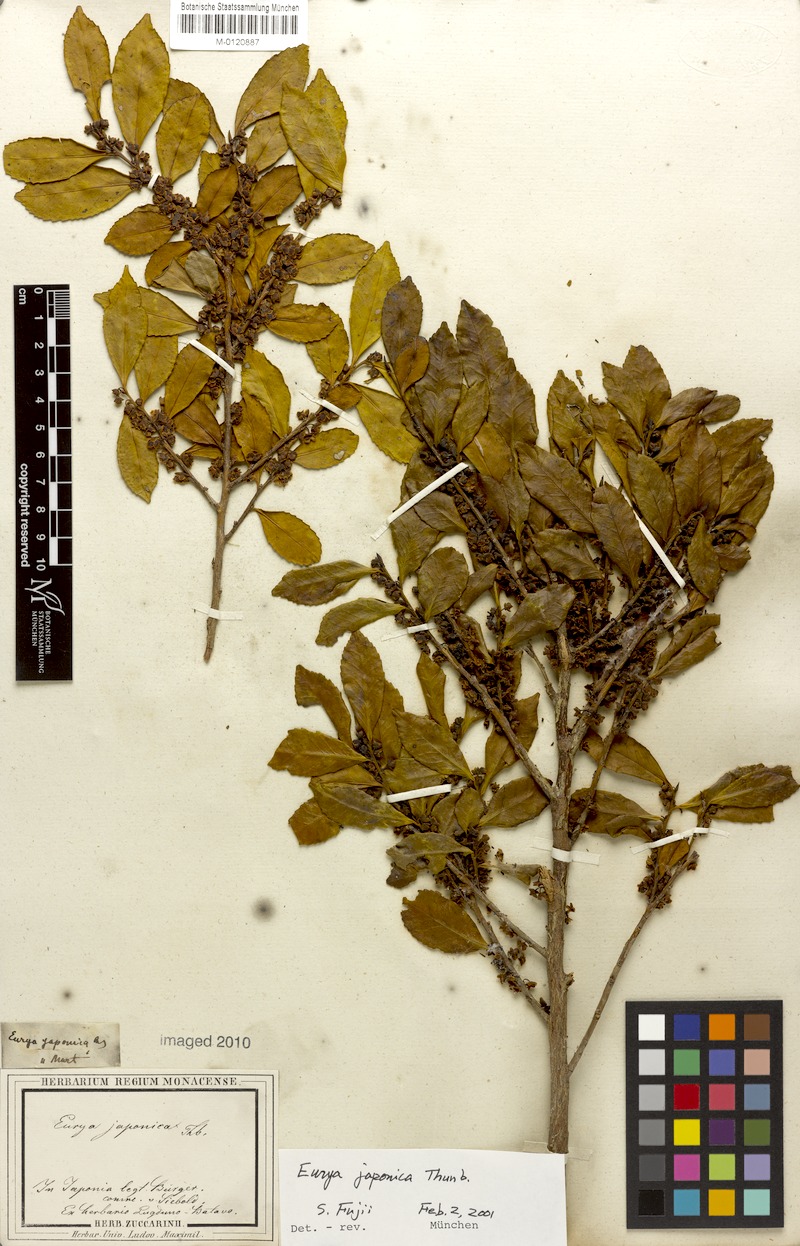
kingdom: Plantae
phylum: Tracheophyta
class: Magnoliopsida
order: Ericales
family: Pentaphylacaceae
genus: Eurya
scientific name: Eurya japonica
